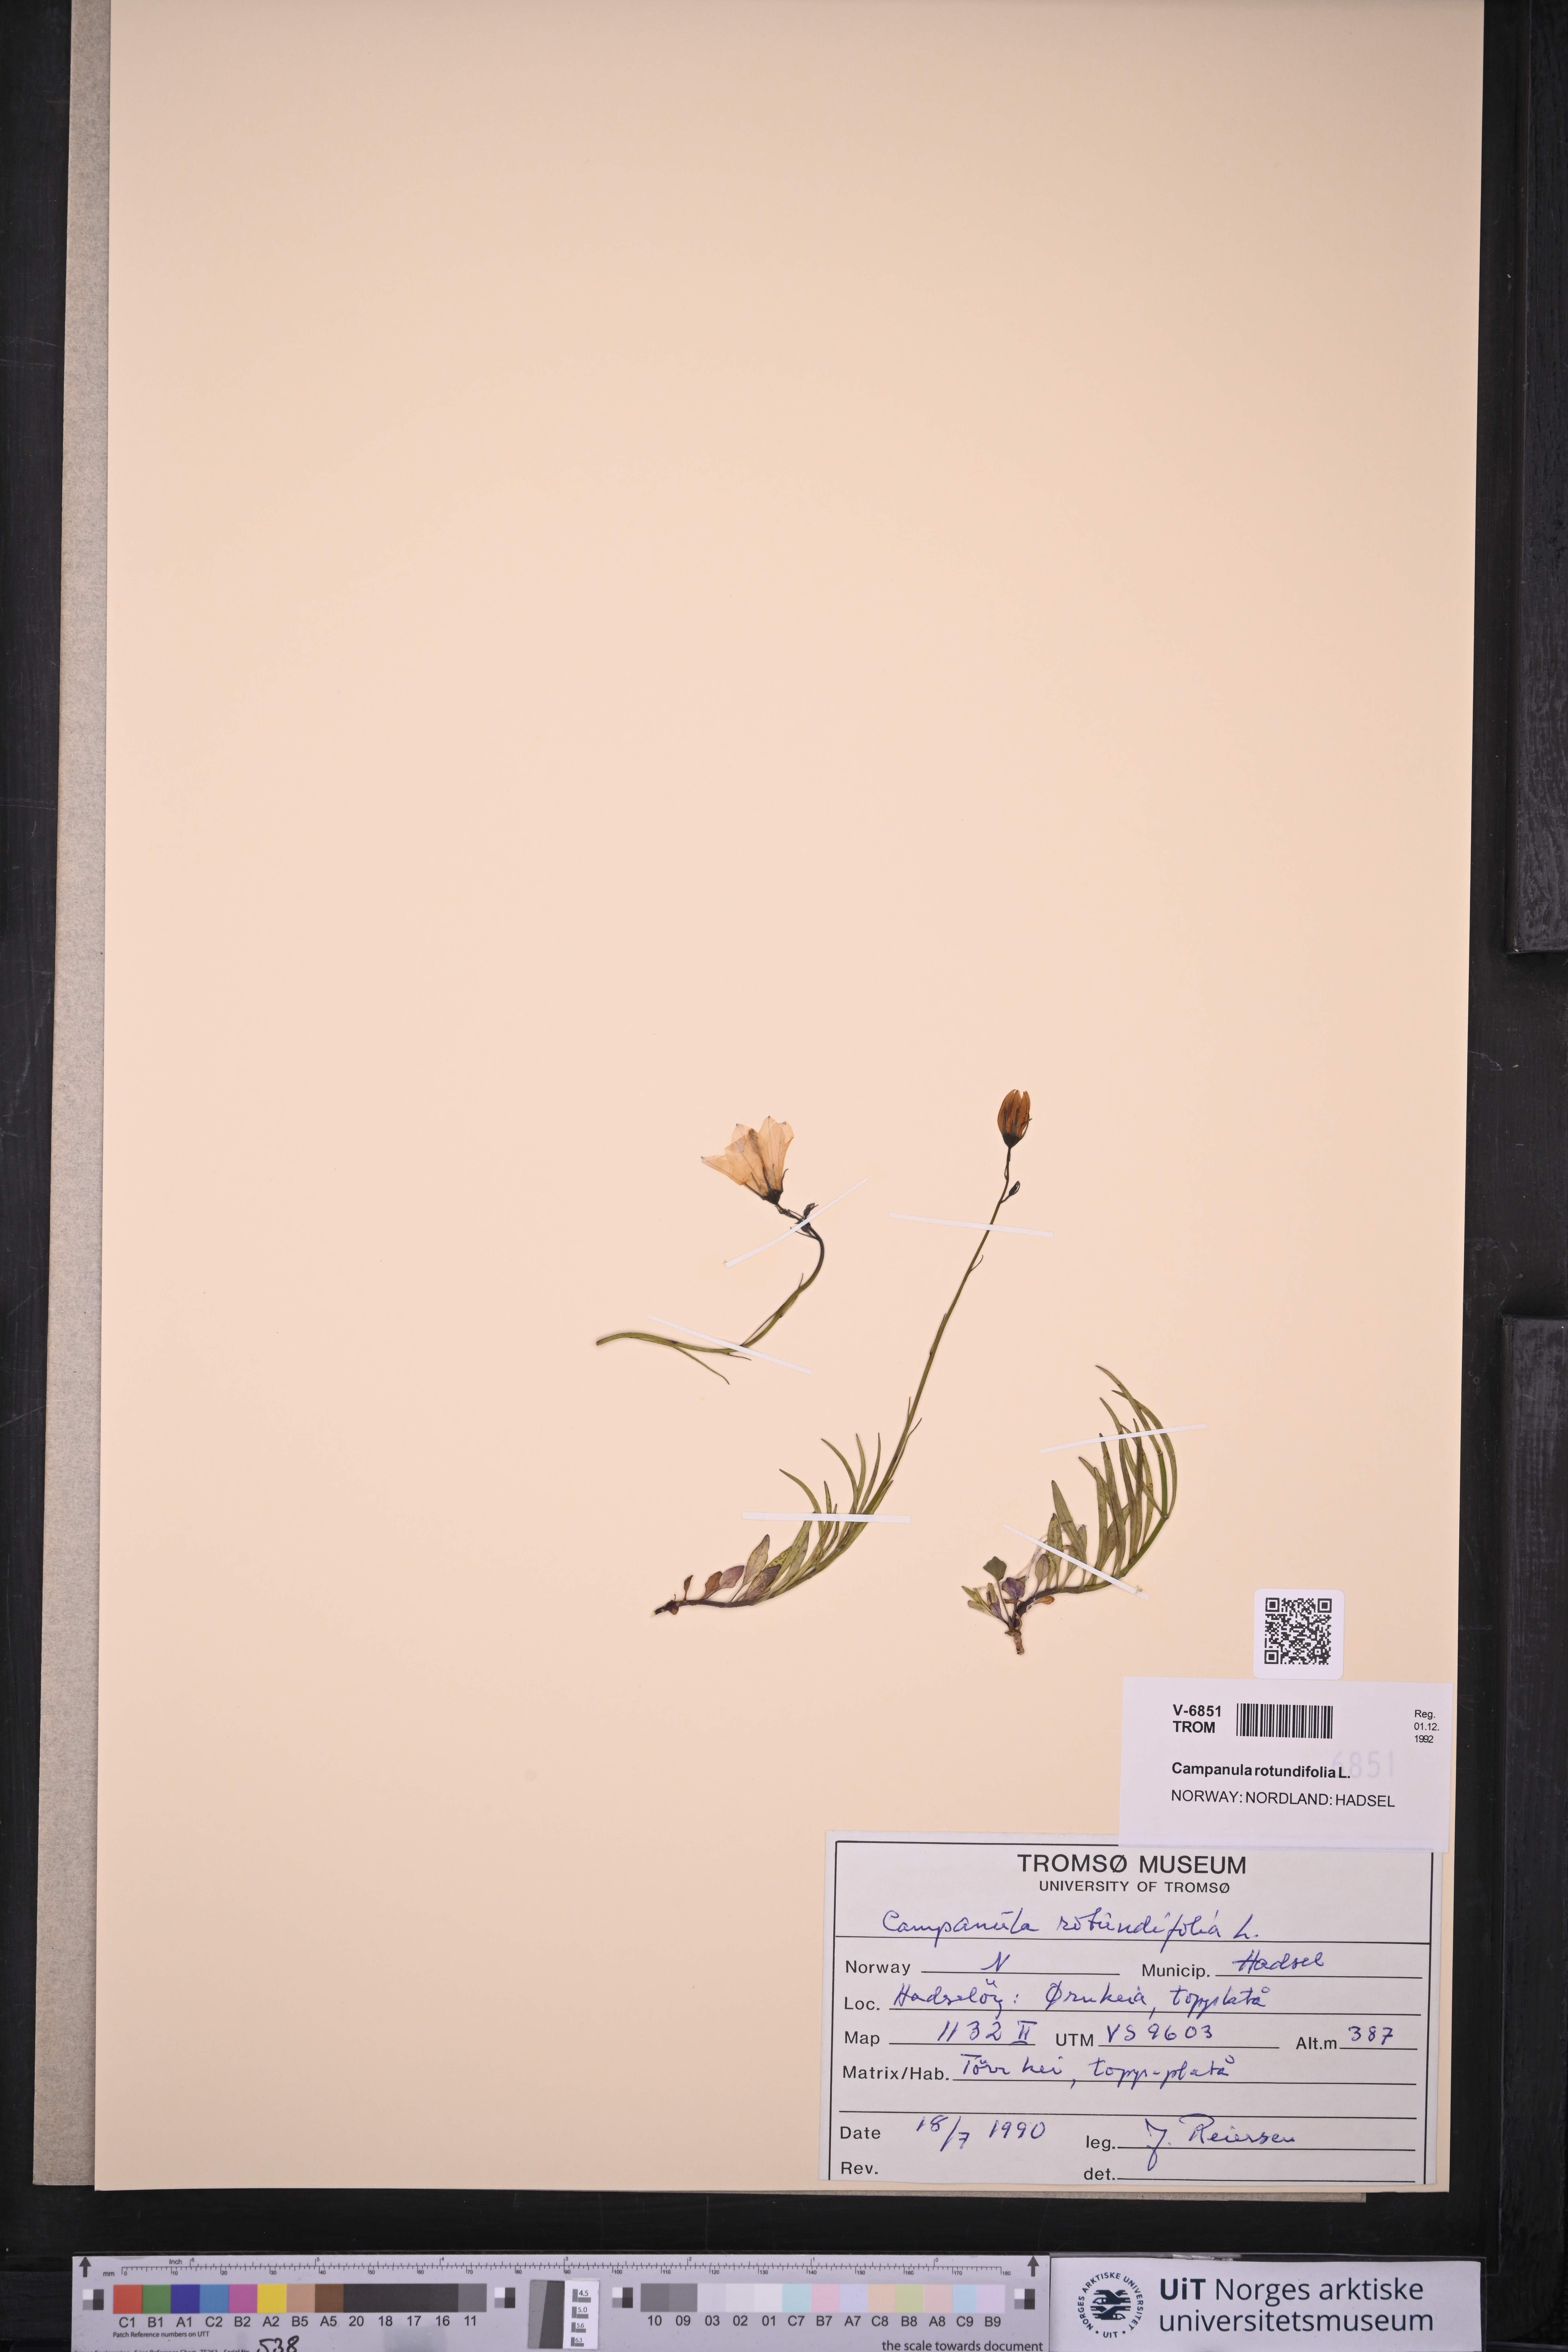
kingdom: Plantae
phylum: Tracheophyta
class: Magnoliopsida
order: Asterales
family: Campanulaceae
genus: Campanula
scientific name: Campanula rotundifolia
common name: Harebell
